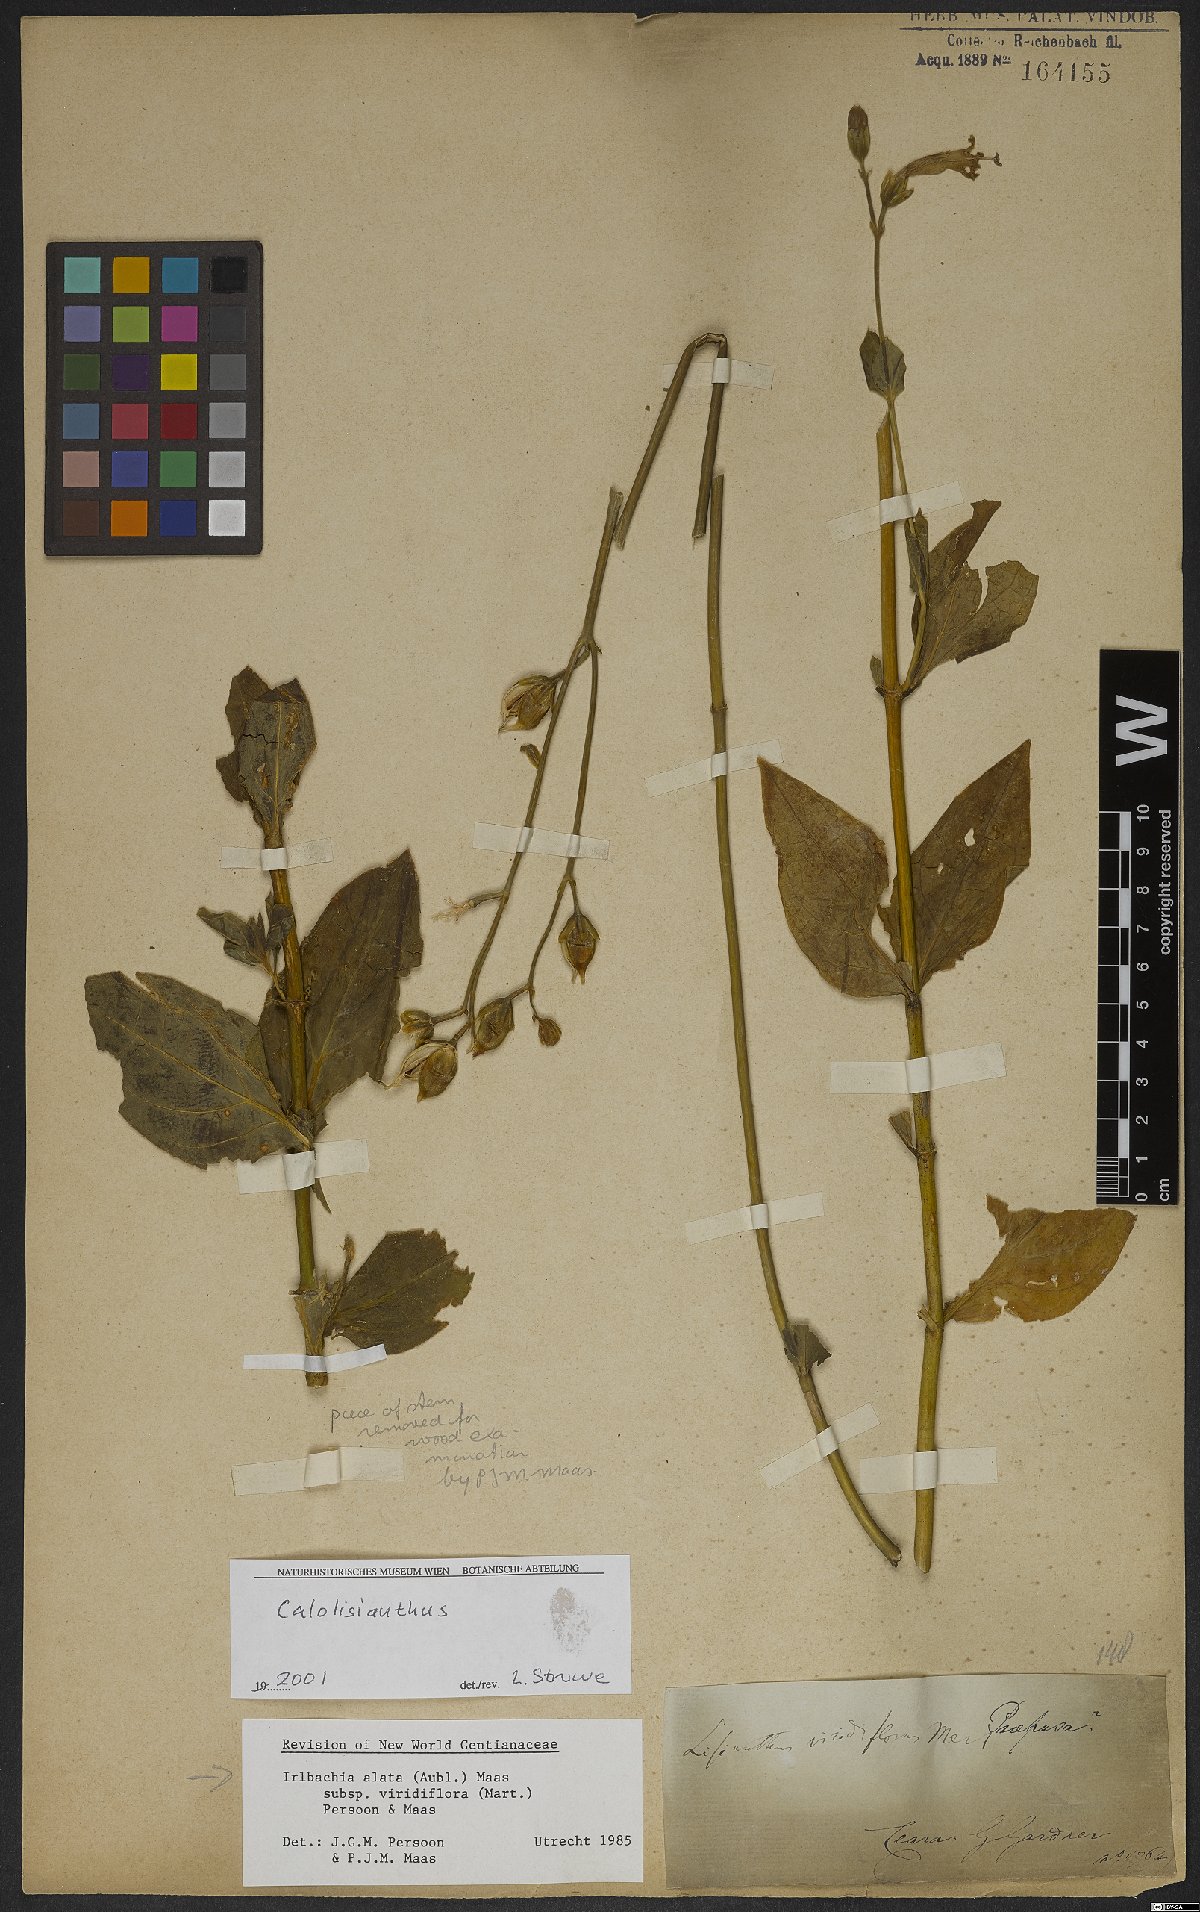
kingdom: Plantae
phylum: Tracheophyta
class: Magnoliopsida
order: Gentianales
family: Gentianaceae
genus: Chelonanthus
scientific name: Chelonanthus viridiflorus
